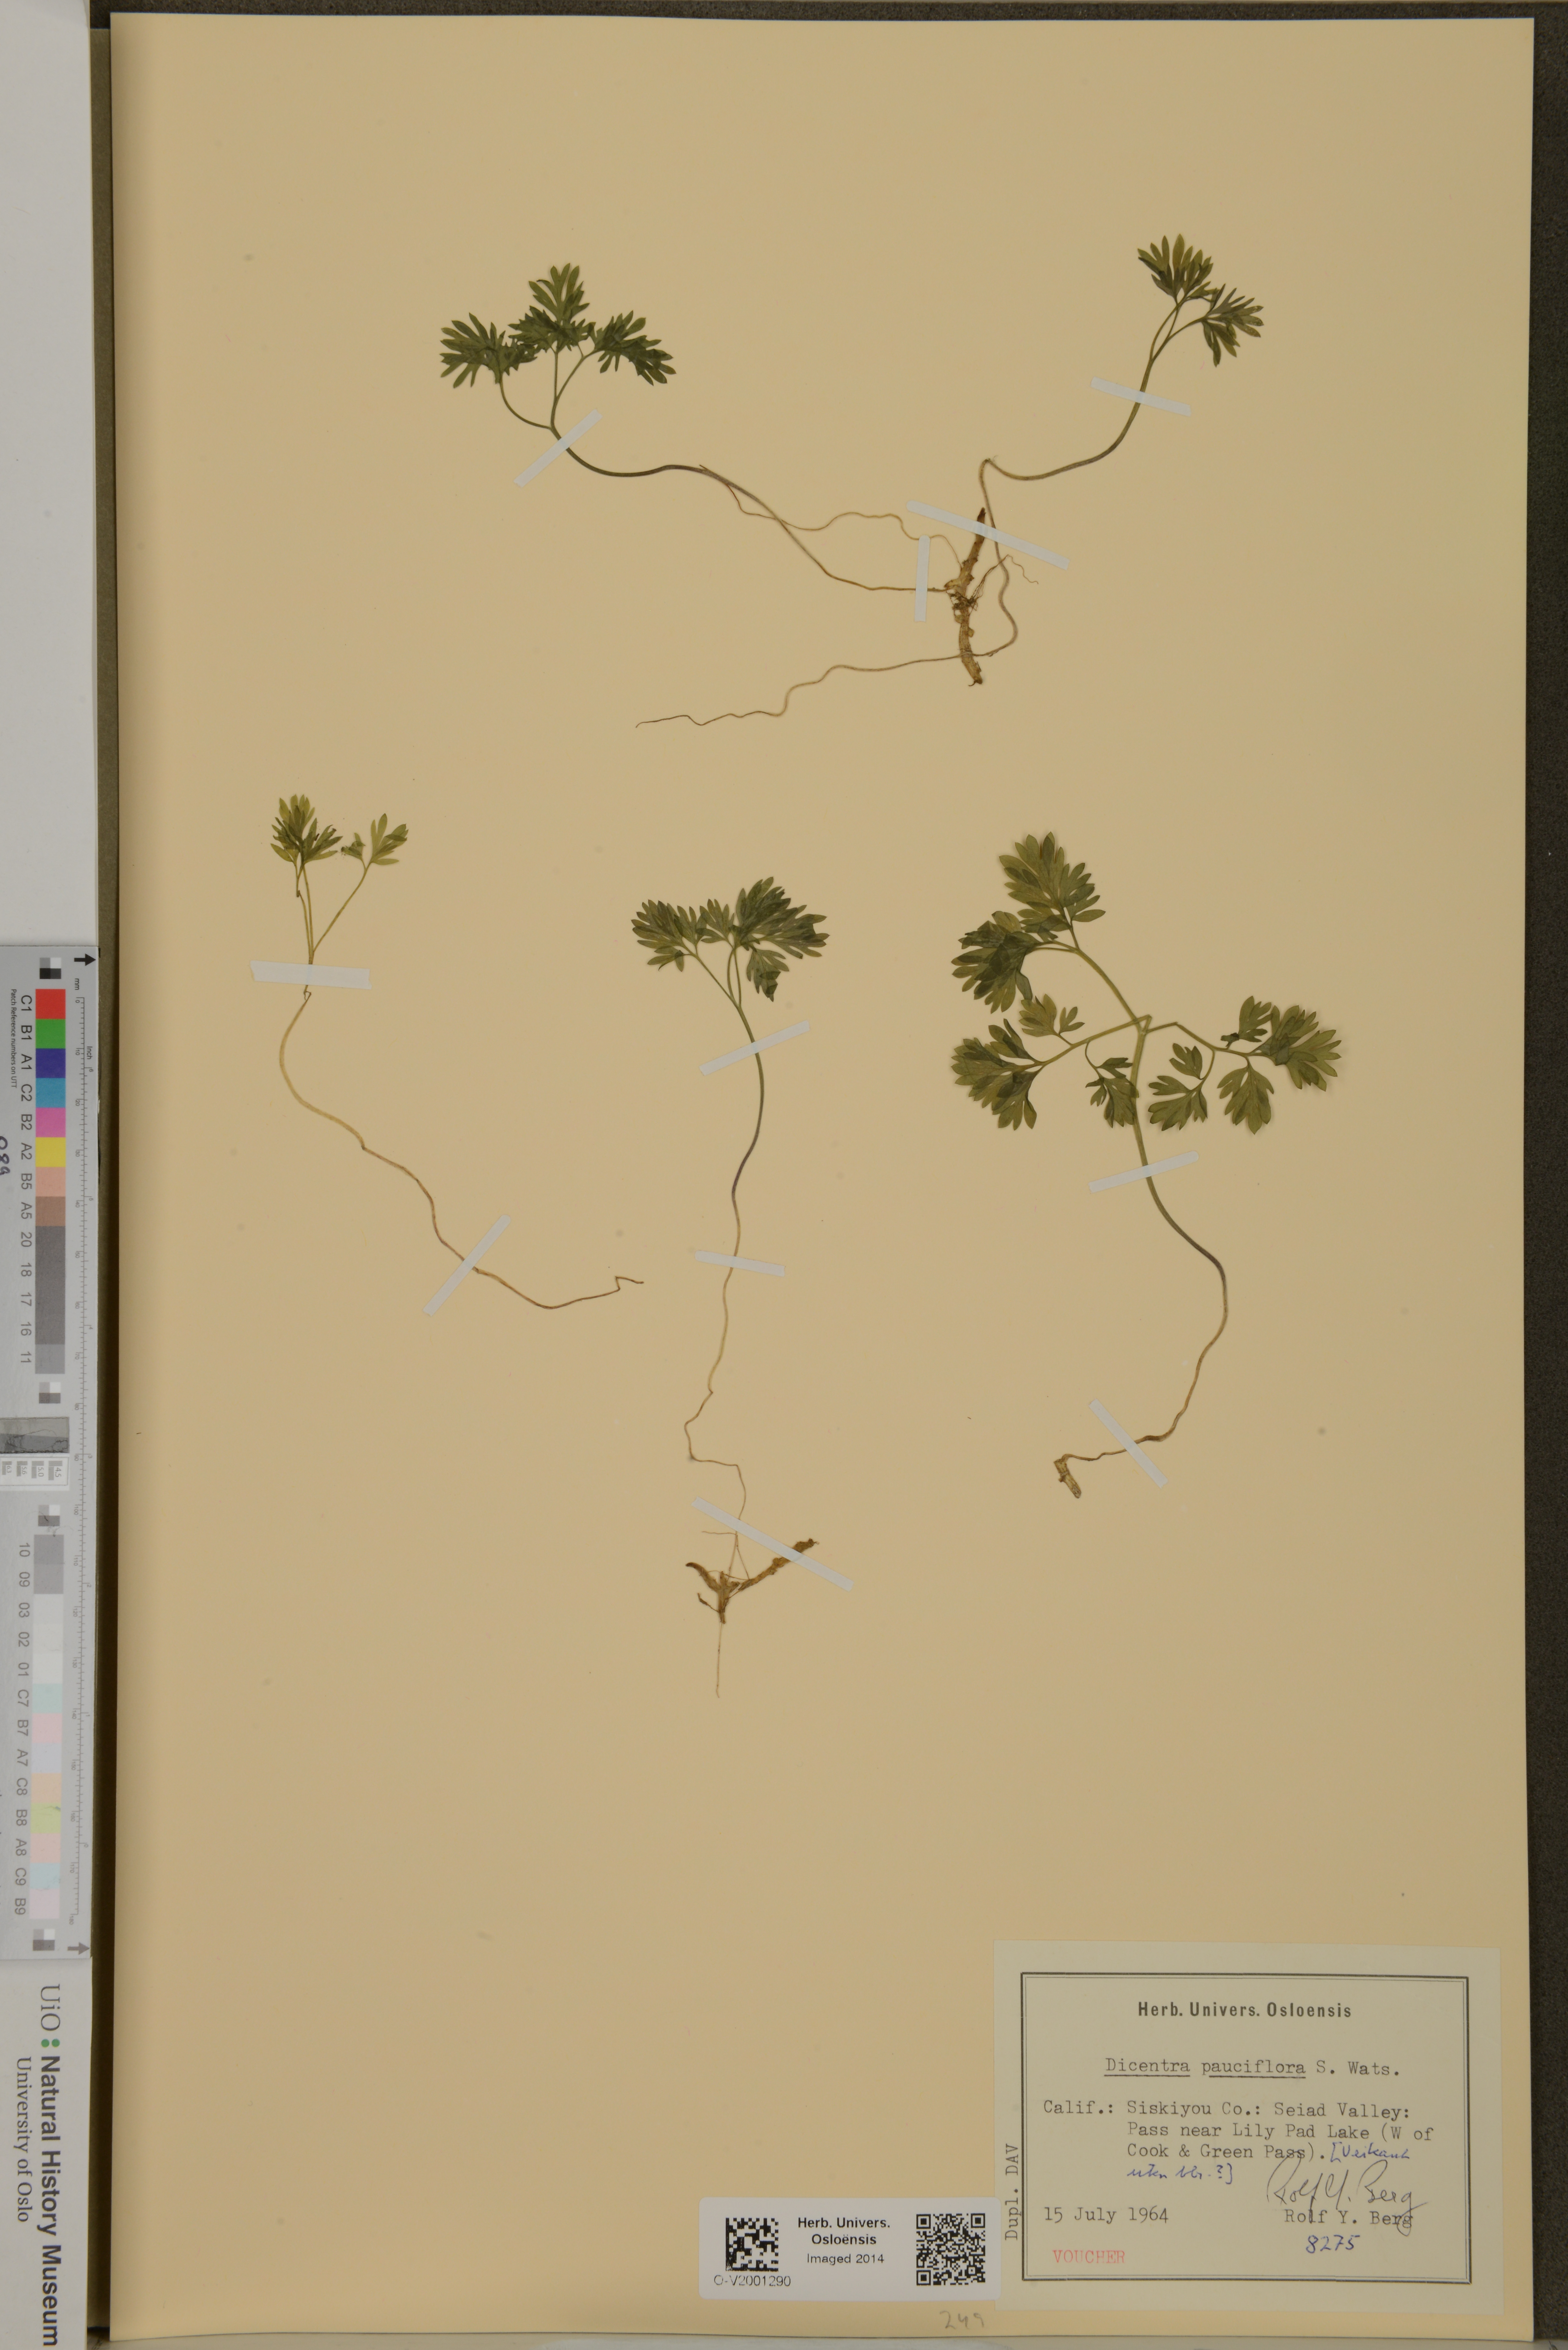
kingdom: Plantae
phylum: Tracheophyta
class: Magnoliopsida
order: Ranunculales
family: Papaveraceae
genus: Dicentra
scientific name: Dicentra pauciflora
